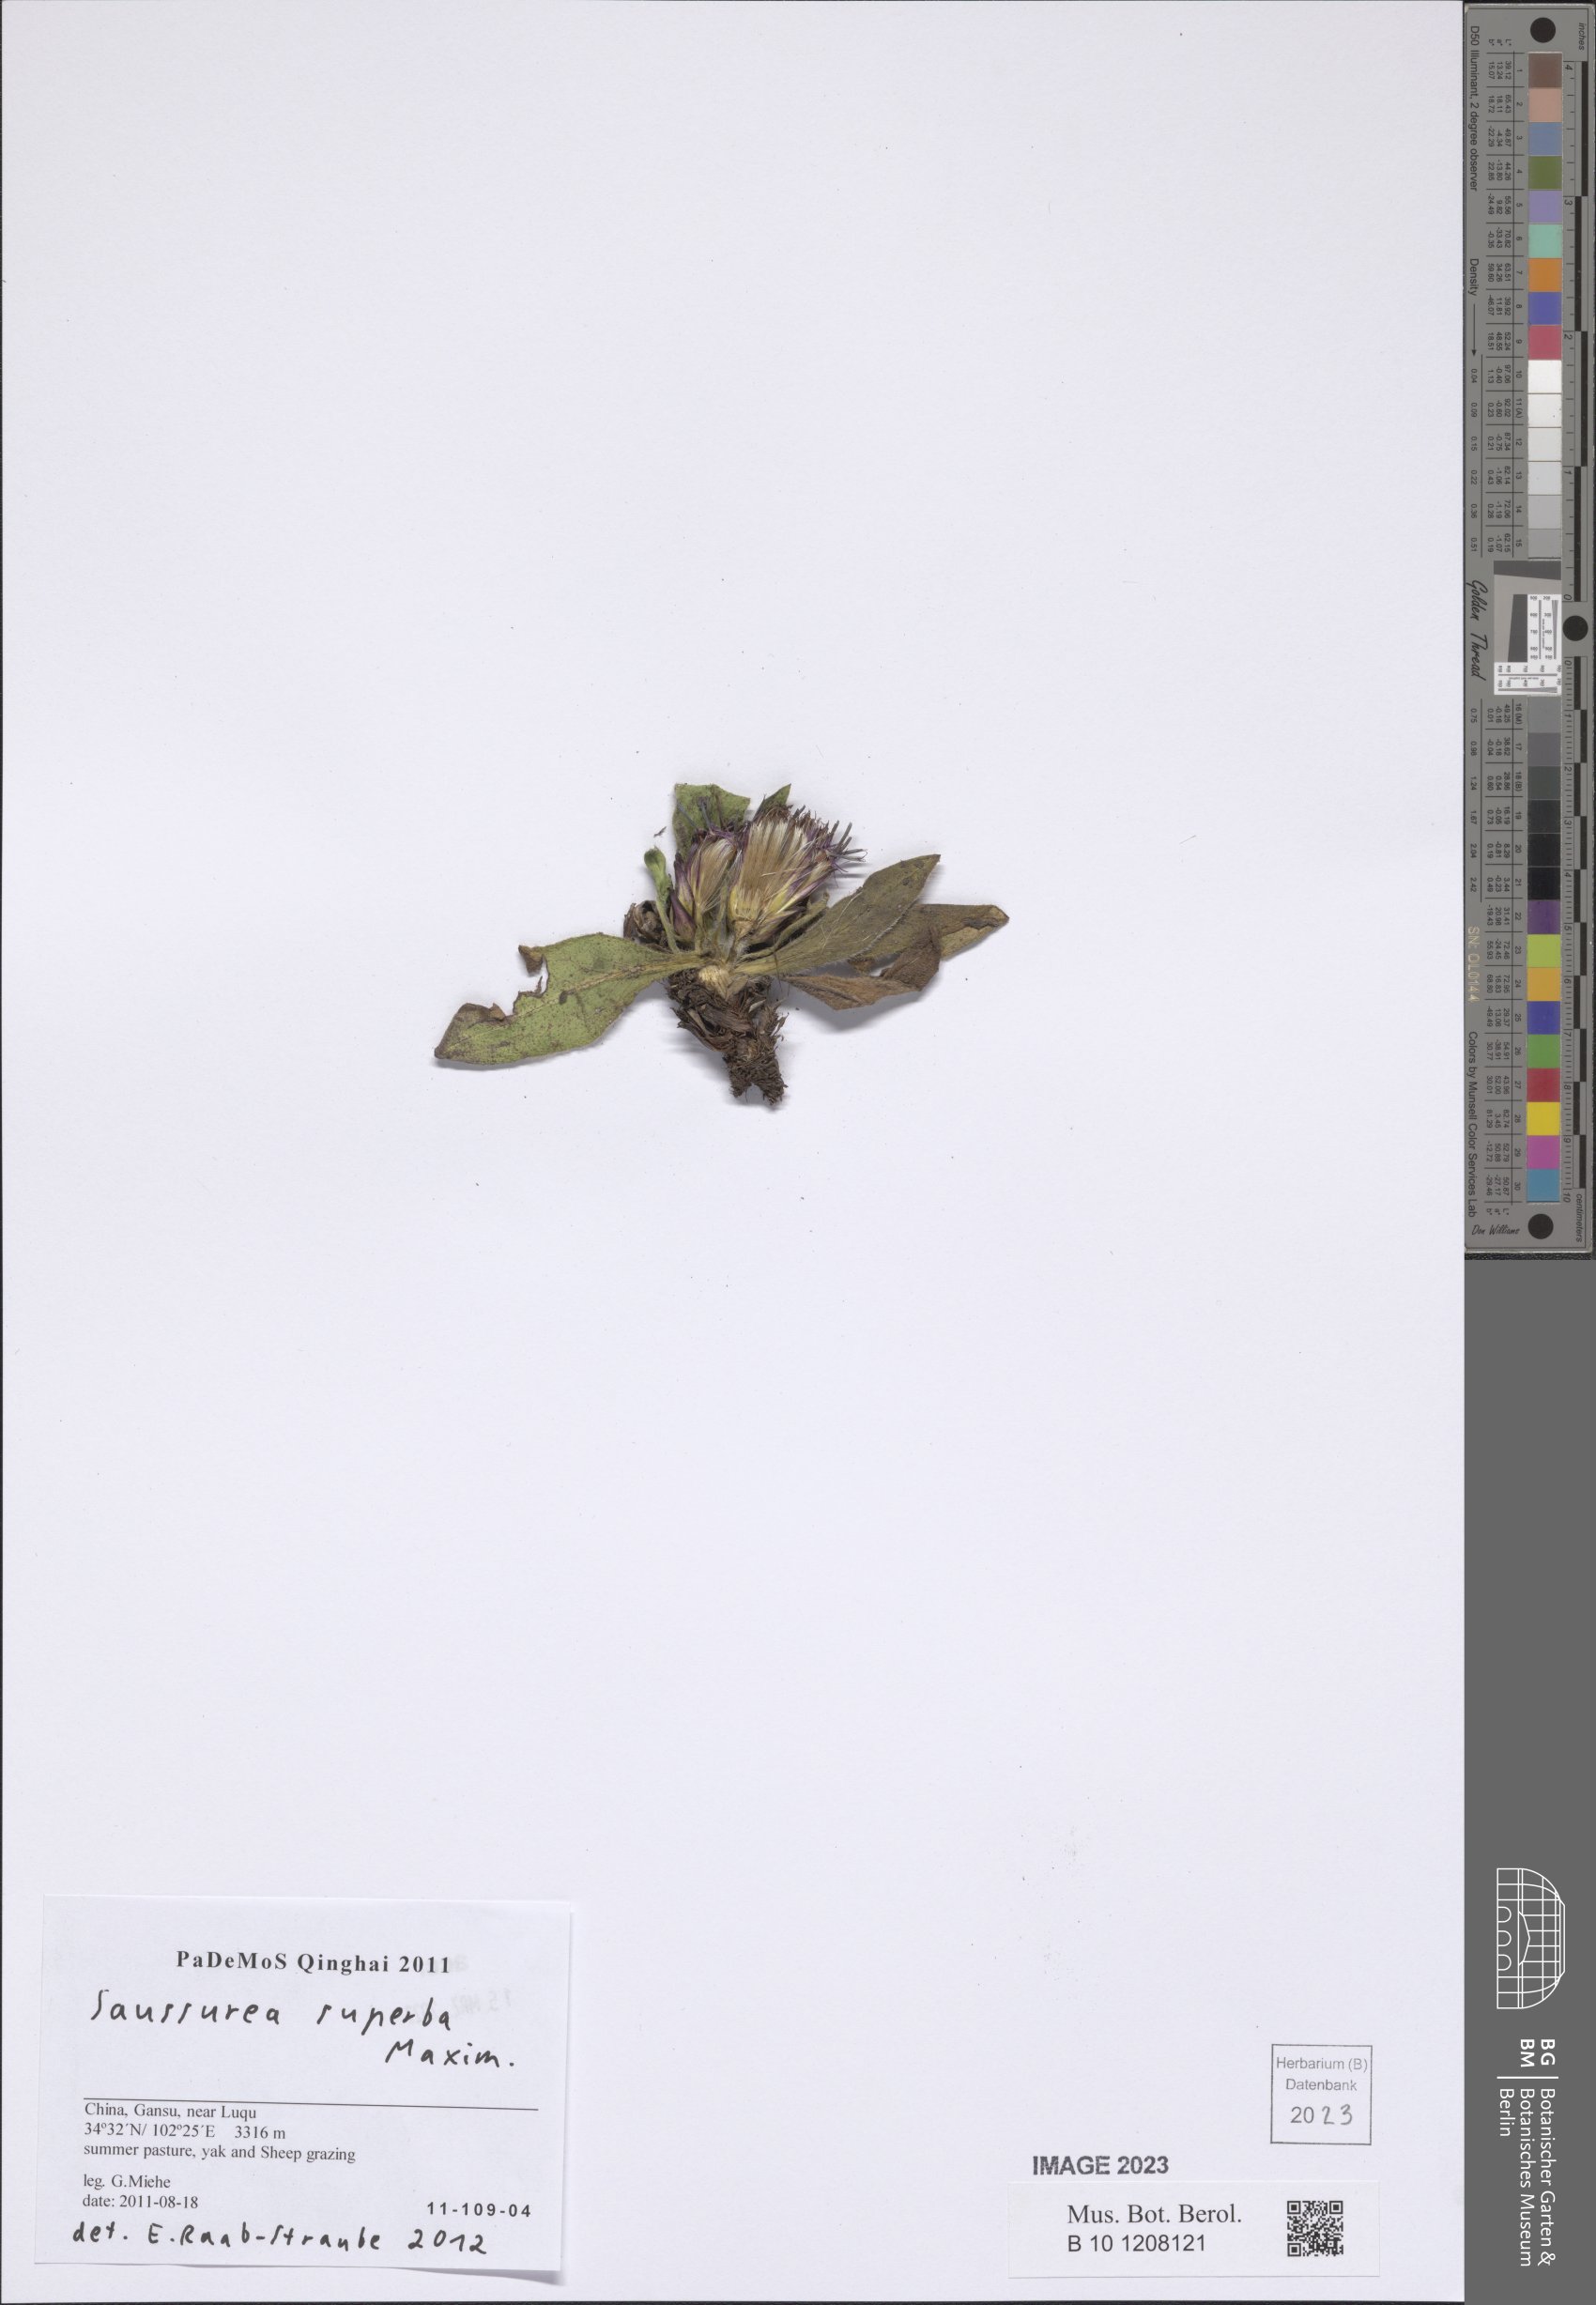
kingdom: Plantae
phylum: Tracheophyta
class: Magnoliopsida
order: Asterales
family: Asteraceae
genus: Saussurea
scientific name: Saussurea superba
